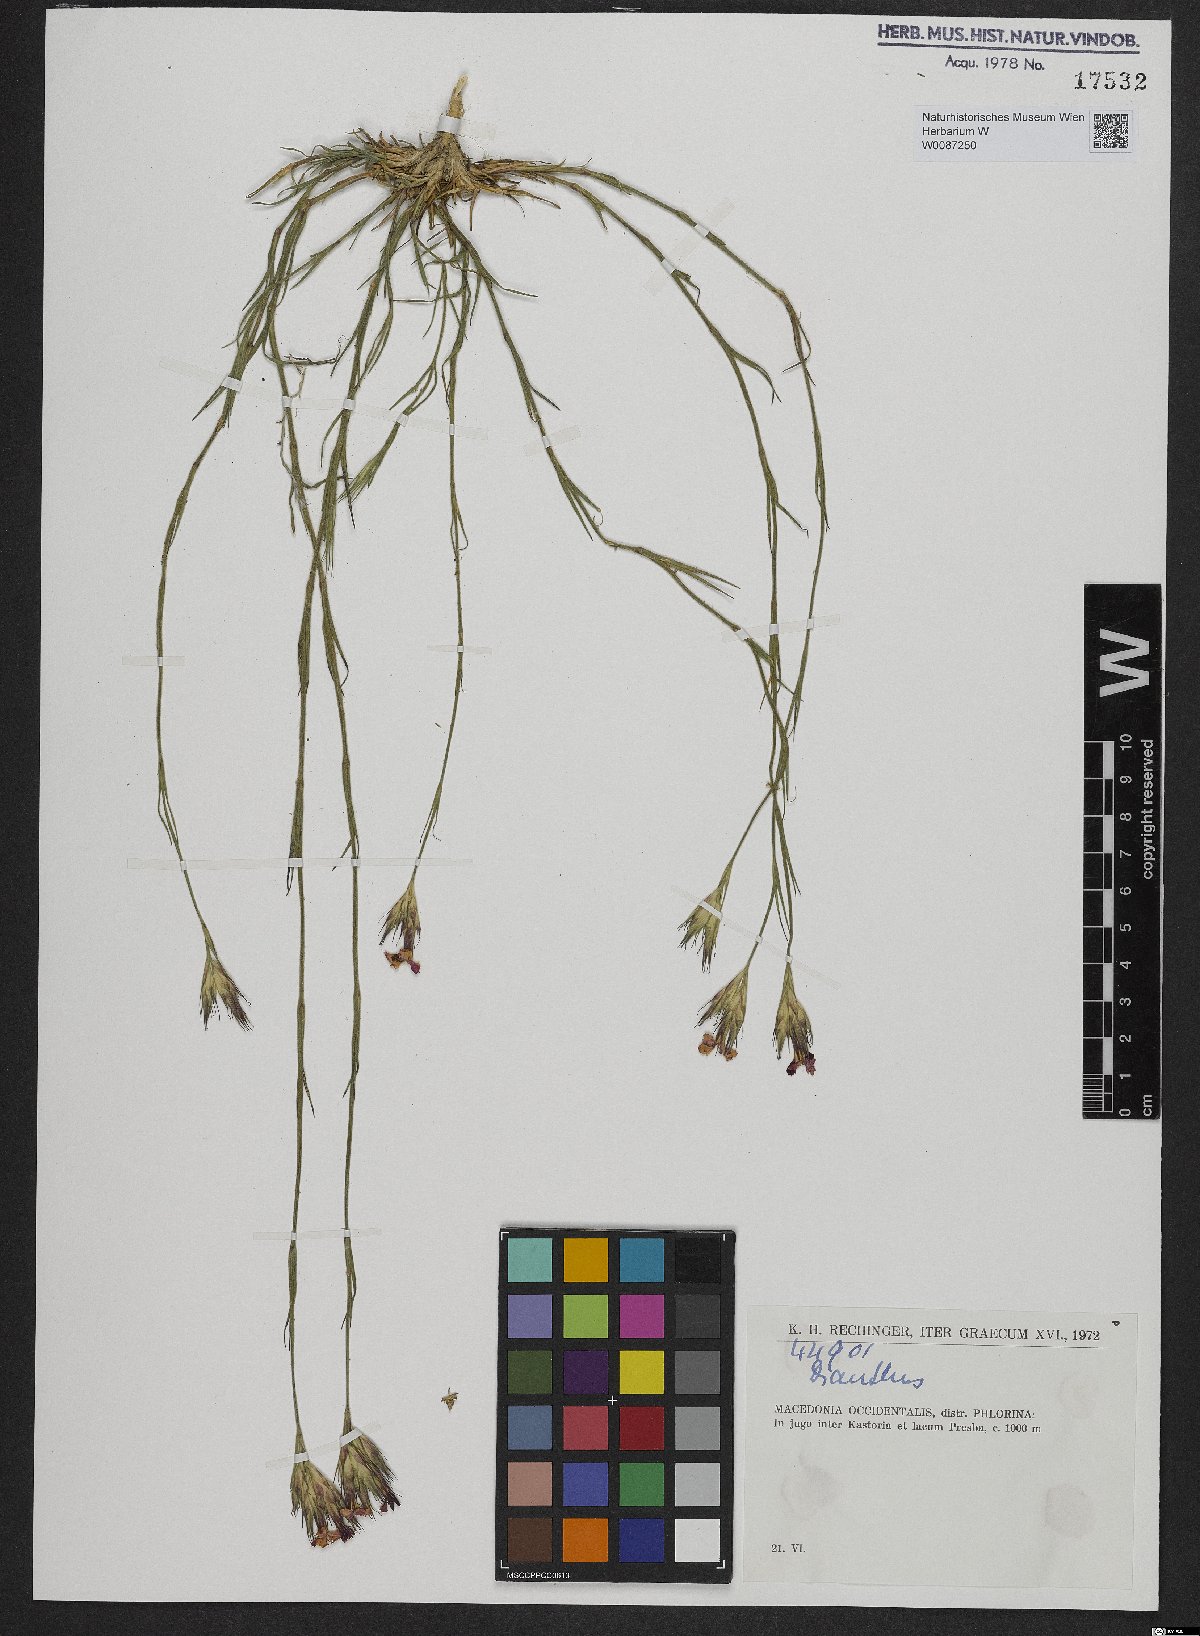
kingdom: Plantae
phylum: Tracheophyta
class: Magnoliopsida
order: Caryophyllales
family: Caryophyllaceae
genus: Dianthus
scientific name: Dianthus
